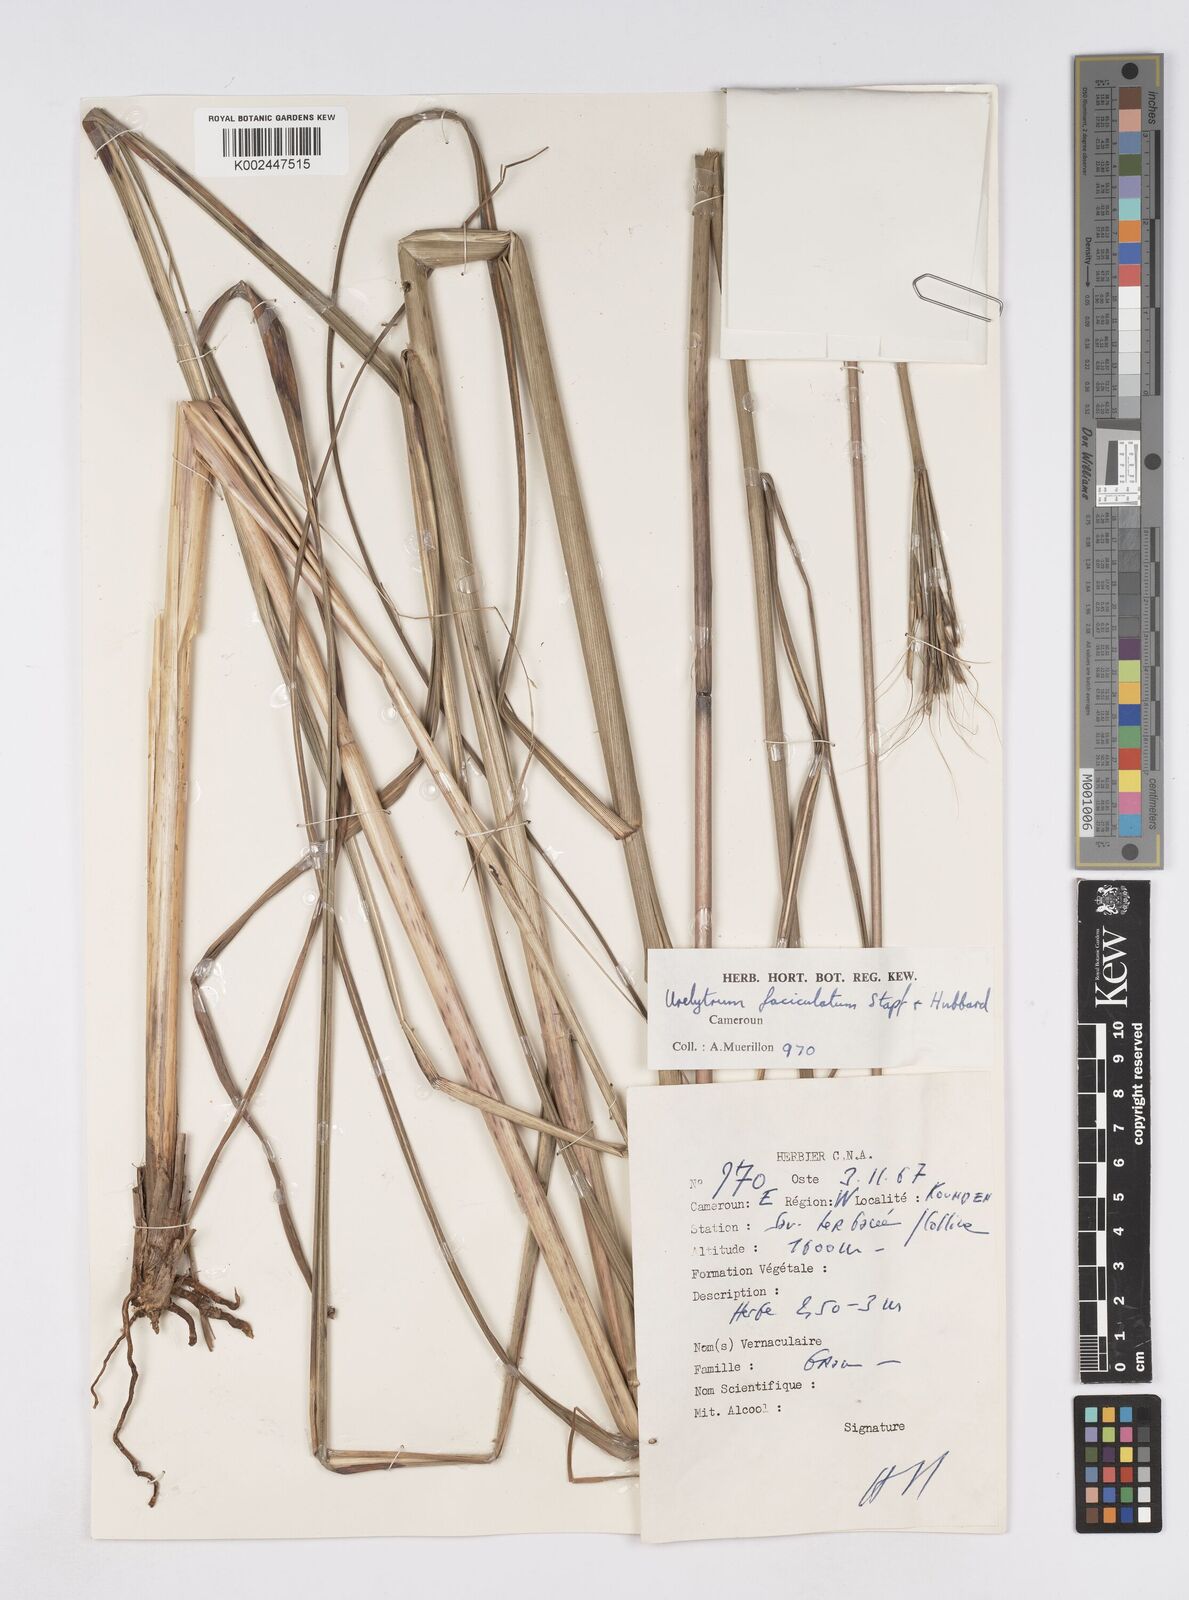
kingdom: Plantae
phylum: Tracheophyta
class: Liliopsida
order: Poales
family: Poaceae
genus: Urelytrum
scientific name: Urelytrum digitatum
